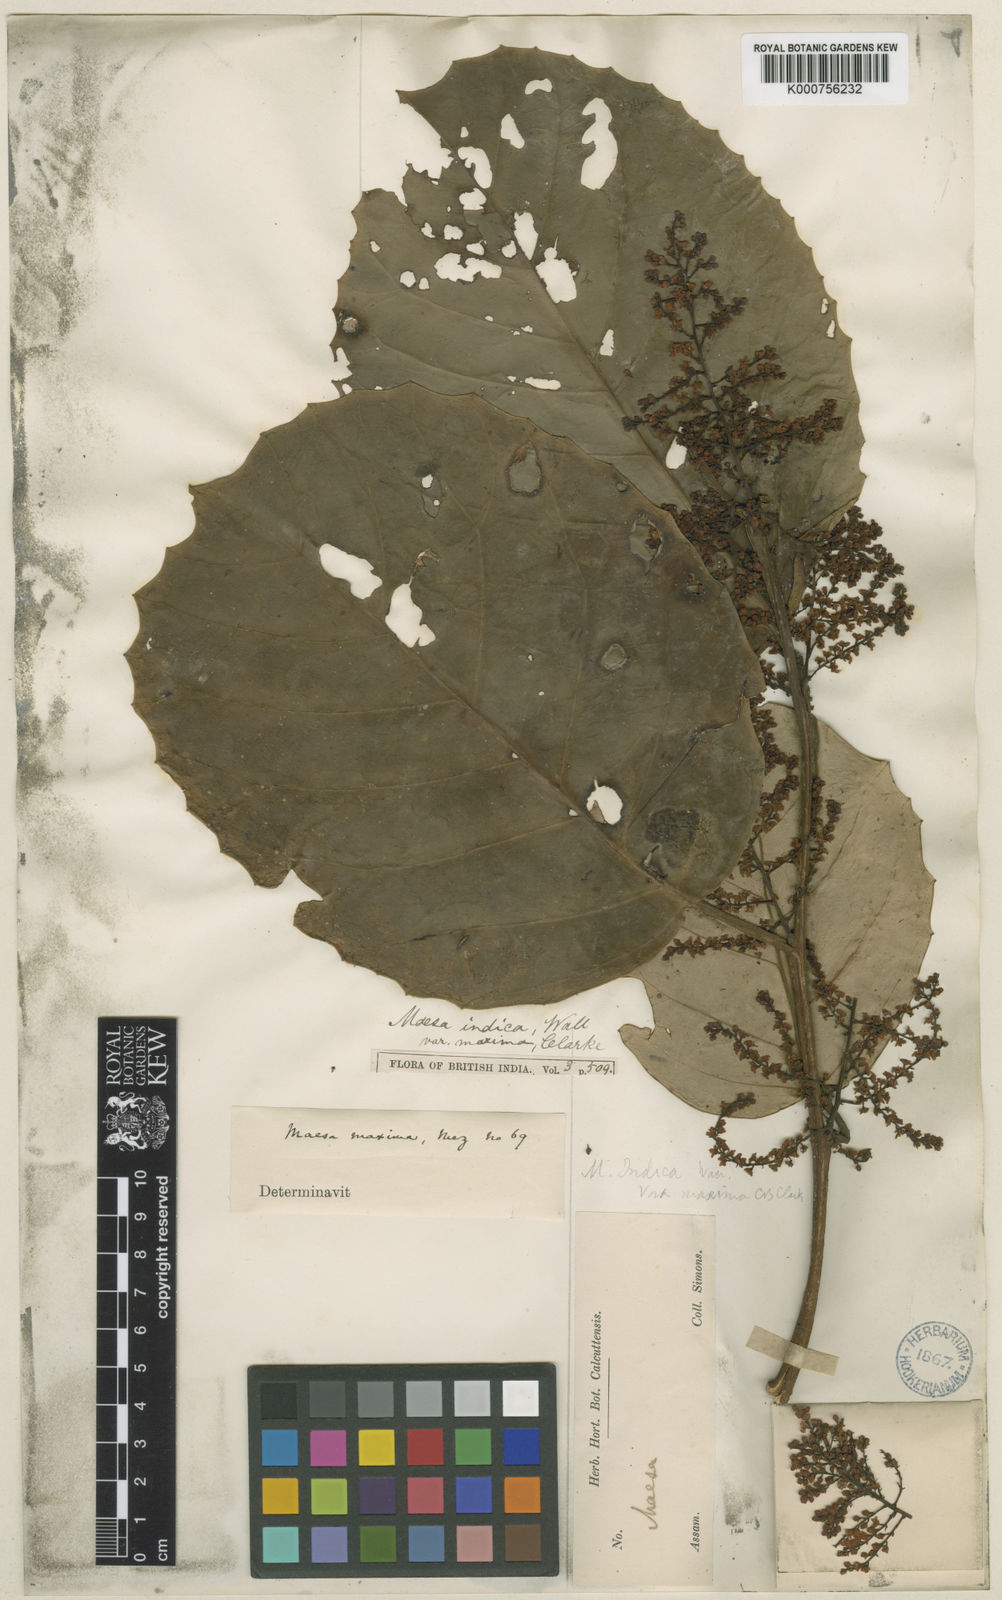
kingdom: Plantae
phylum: Tracheophyta
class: Magnoliopsida
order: Ericales
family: Primulaceae
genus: Maesa
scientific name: Maesa macrophylla
